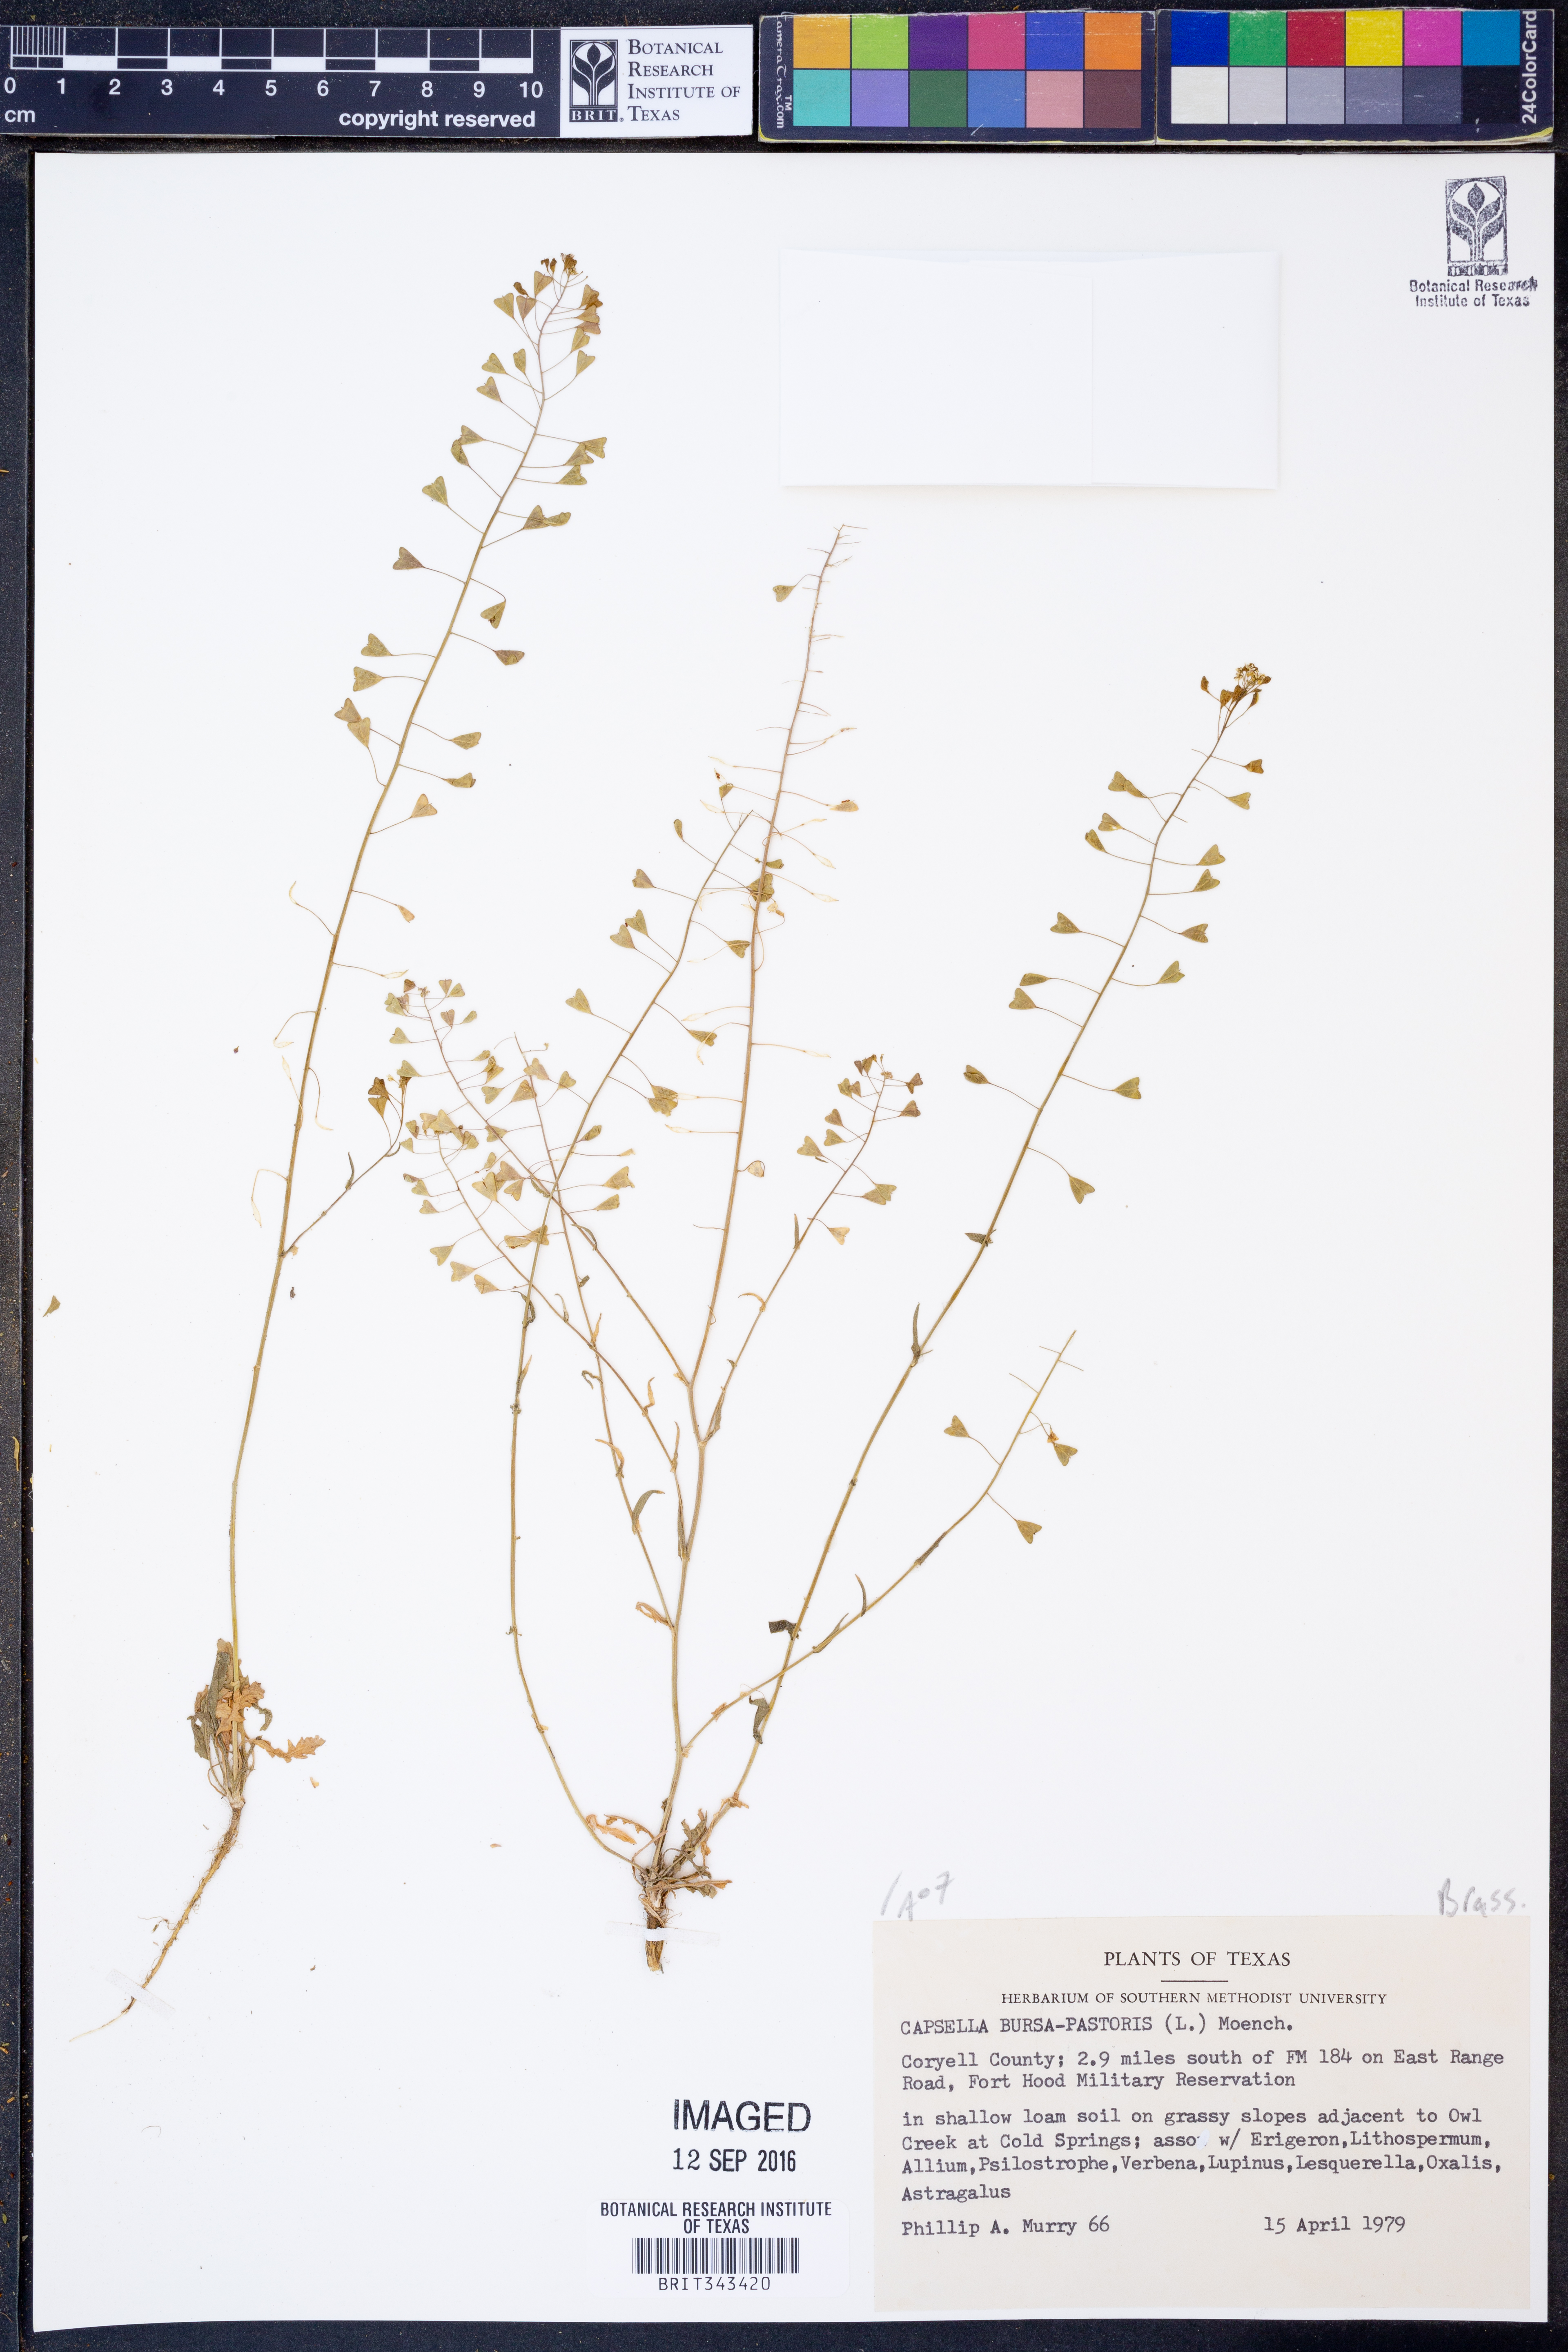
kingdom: Plantae
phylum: Tracheophyta
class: Magnoliopsida
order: Brassicales
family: Brassicaceae
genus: Capsella
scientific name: Capsella bursa-pastoris
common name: Shepherd's purse
